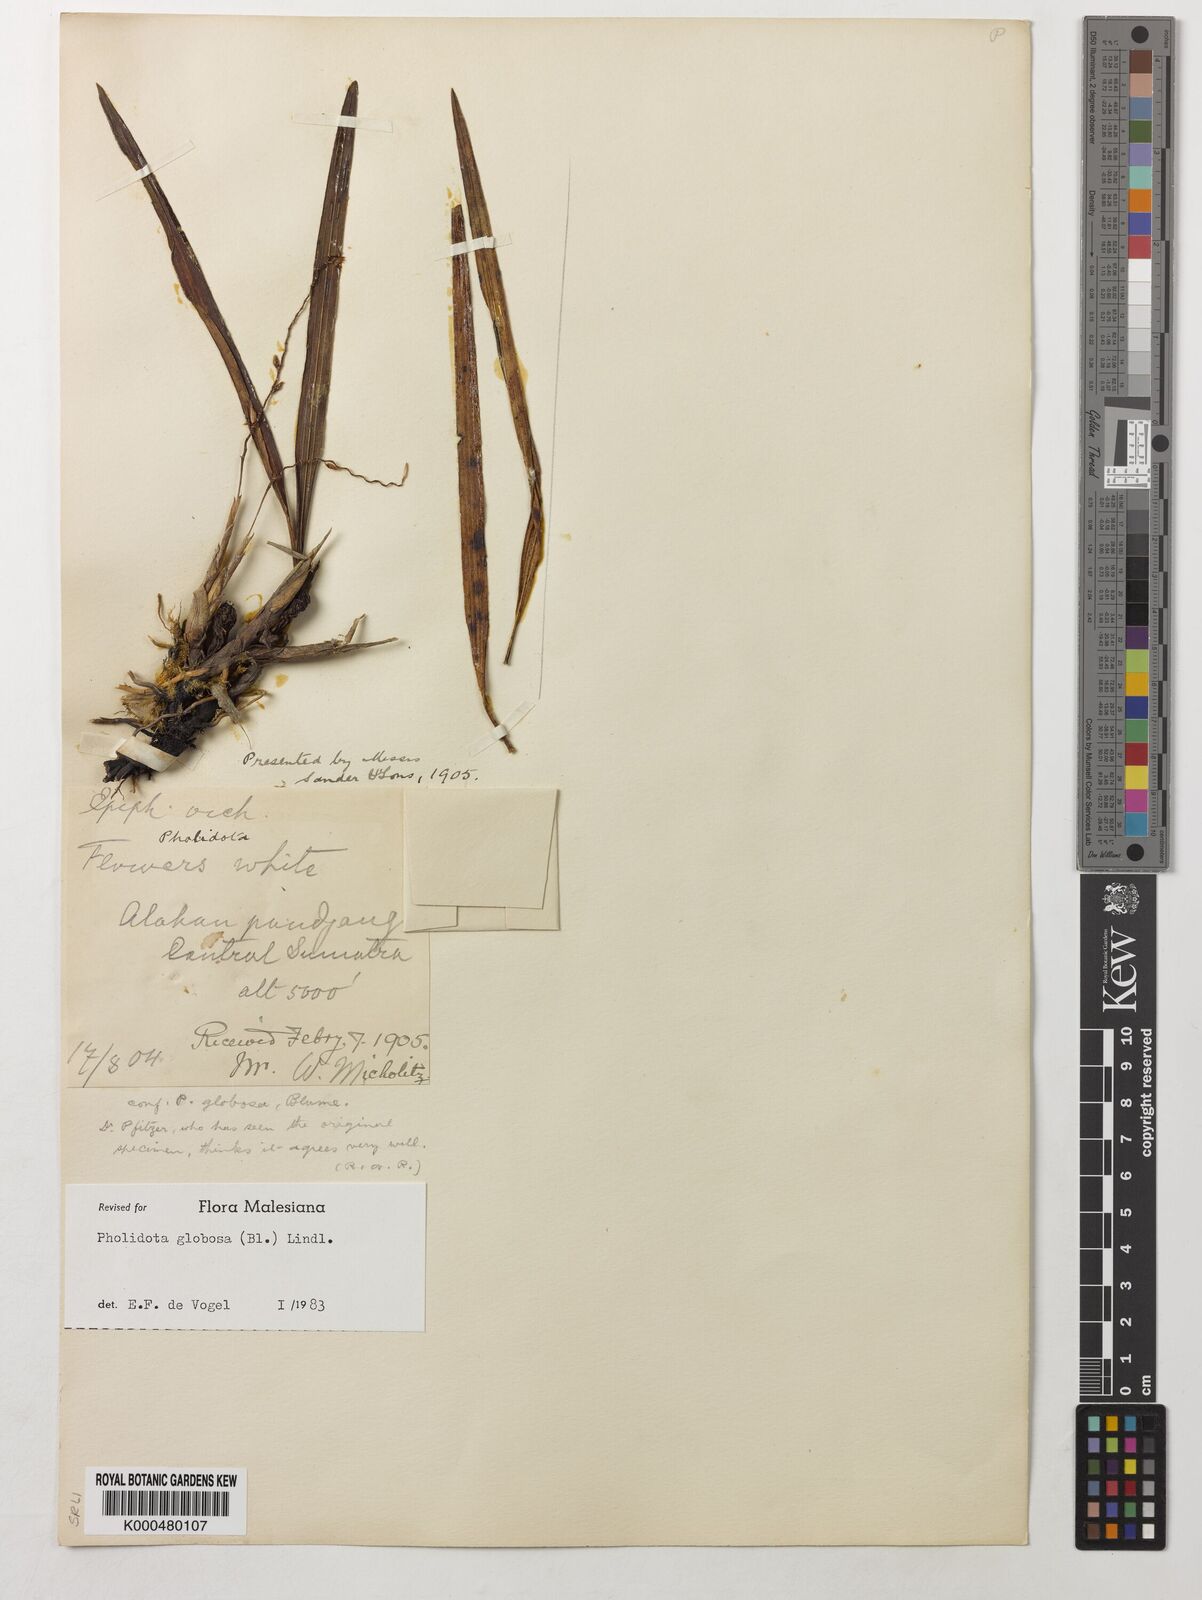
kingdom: Plantae
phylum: Tracheophyta
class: Liliopsida
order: Asparagales
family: Orchidaceae
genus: Coelogyne
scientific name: Coelogyne globosa
